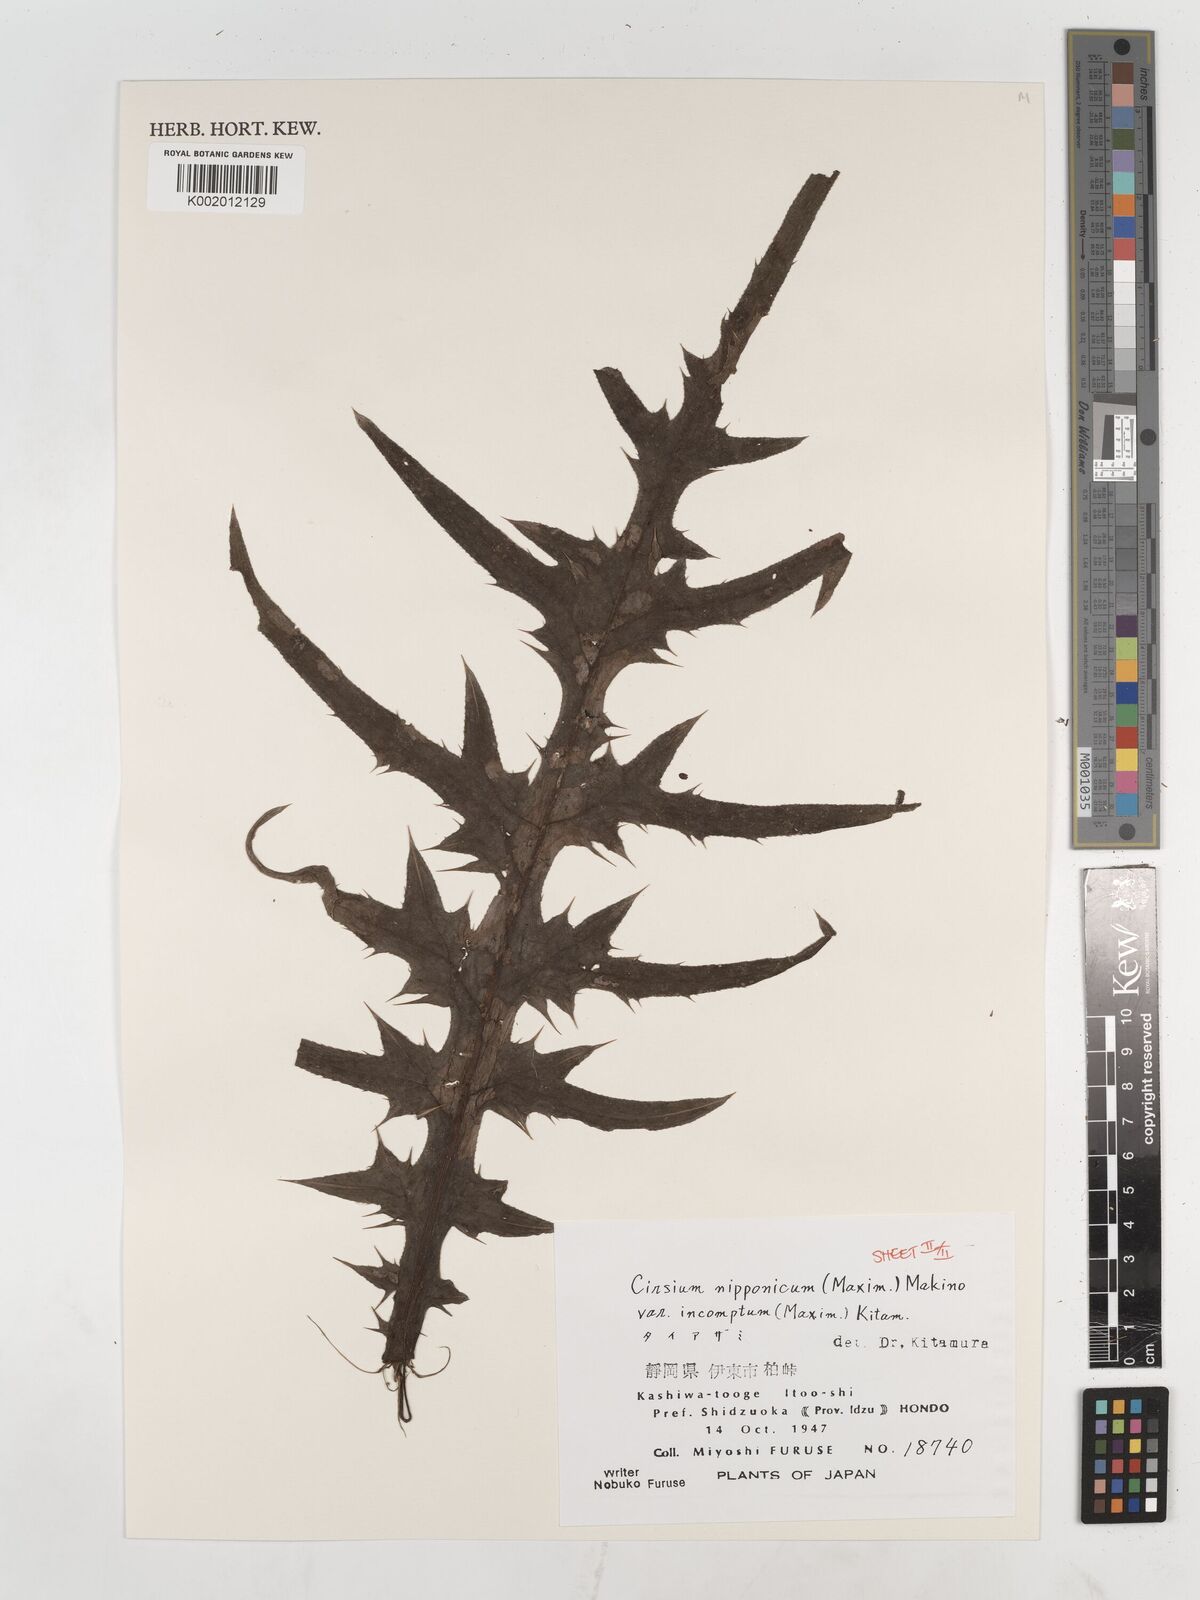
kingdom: Plantae
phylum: Tracheophyta
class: Magnoliopsida
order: Asterales
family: Asteraceae
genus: Cirsium
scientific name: Cirsium nipponicum
